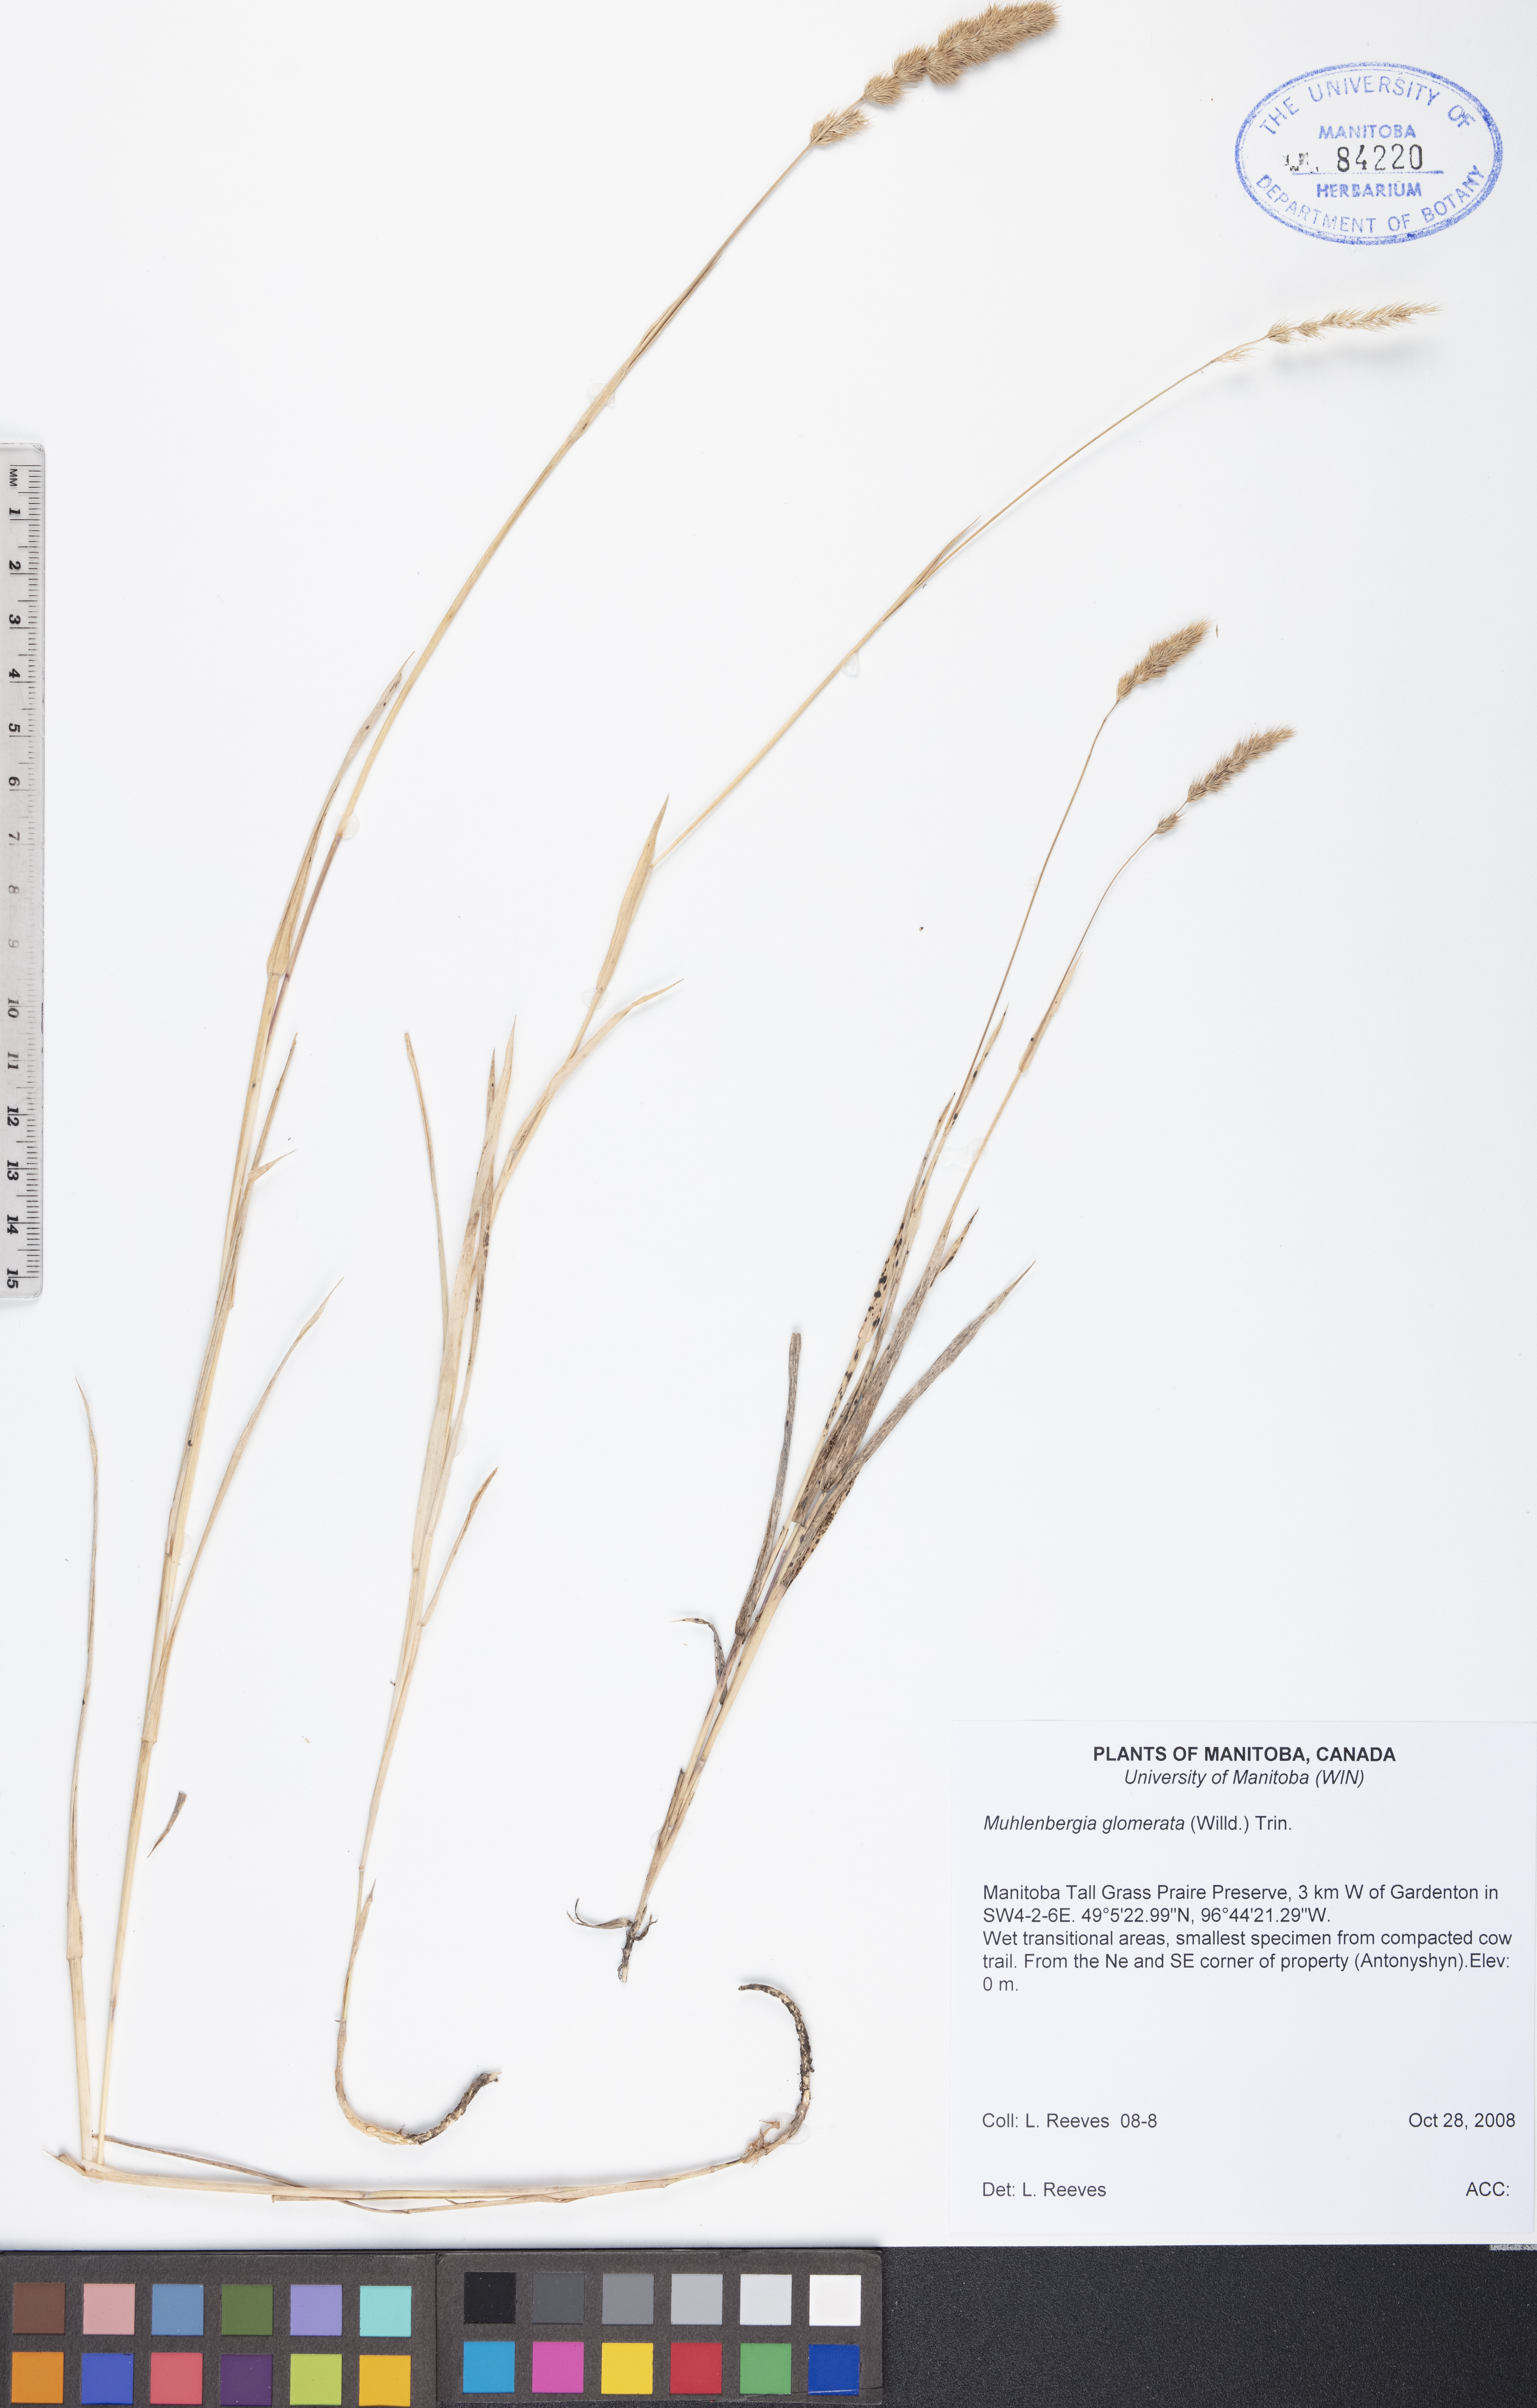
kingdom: Plantae
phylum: Tracheophyta
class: Liliopsida
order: Poales
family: Poaceae
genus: Muhlenbergia
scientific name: Muhlenbergia glomerata
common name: Bog muhly
